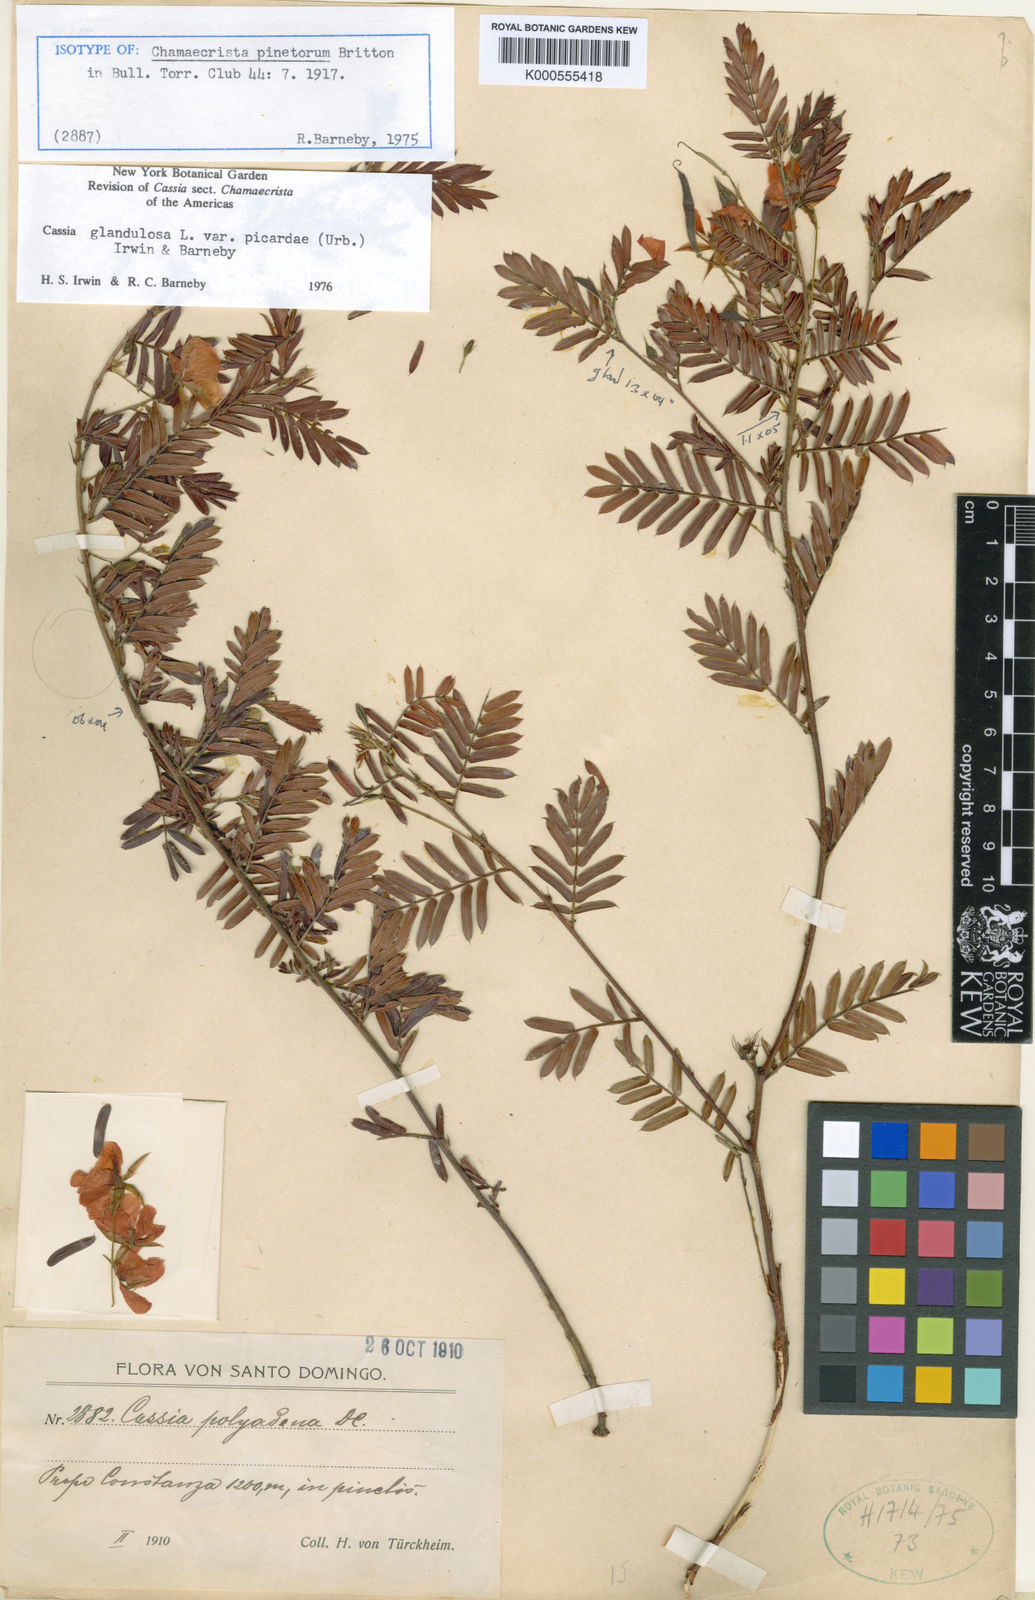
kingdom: Plantae
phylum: Tracheophyta
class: Magnoliopsida
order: Fabales
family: Fabaceae
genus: Chamaecrista
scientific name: Chamaecrista glandulosa
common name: Wild peas
